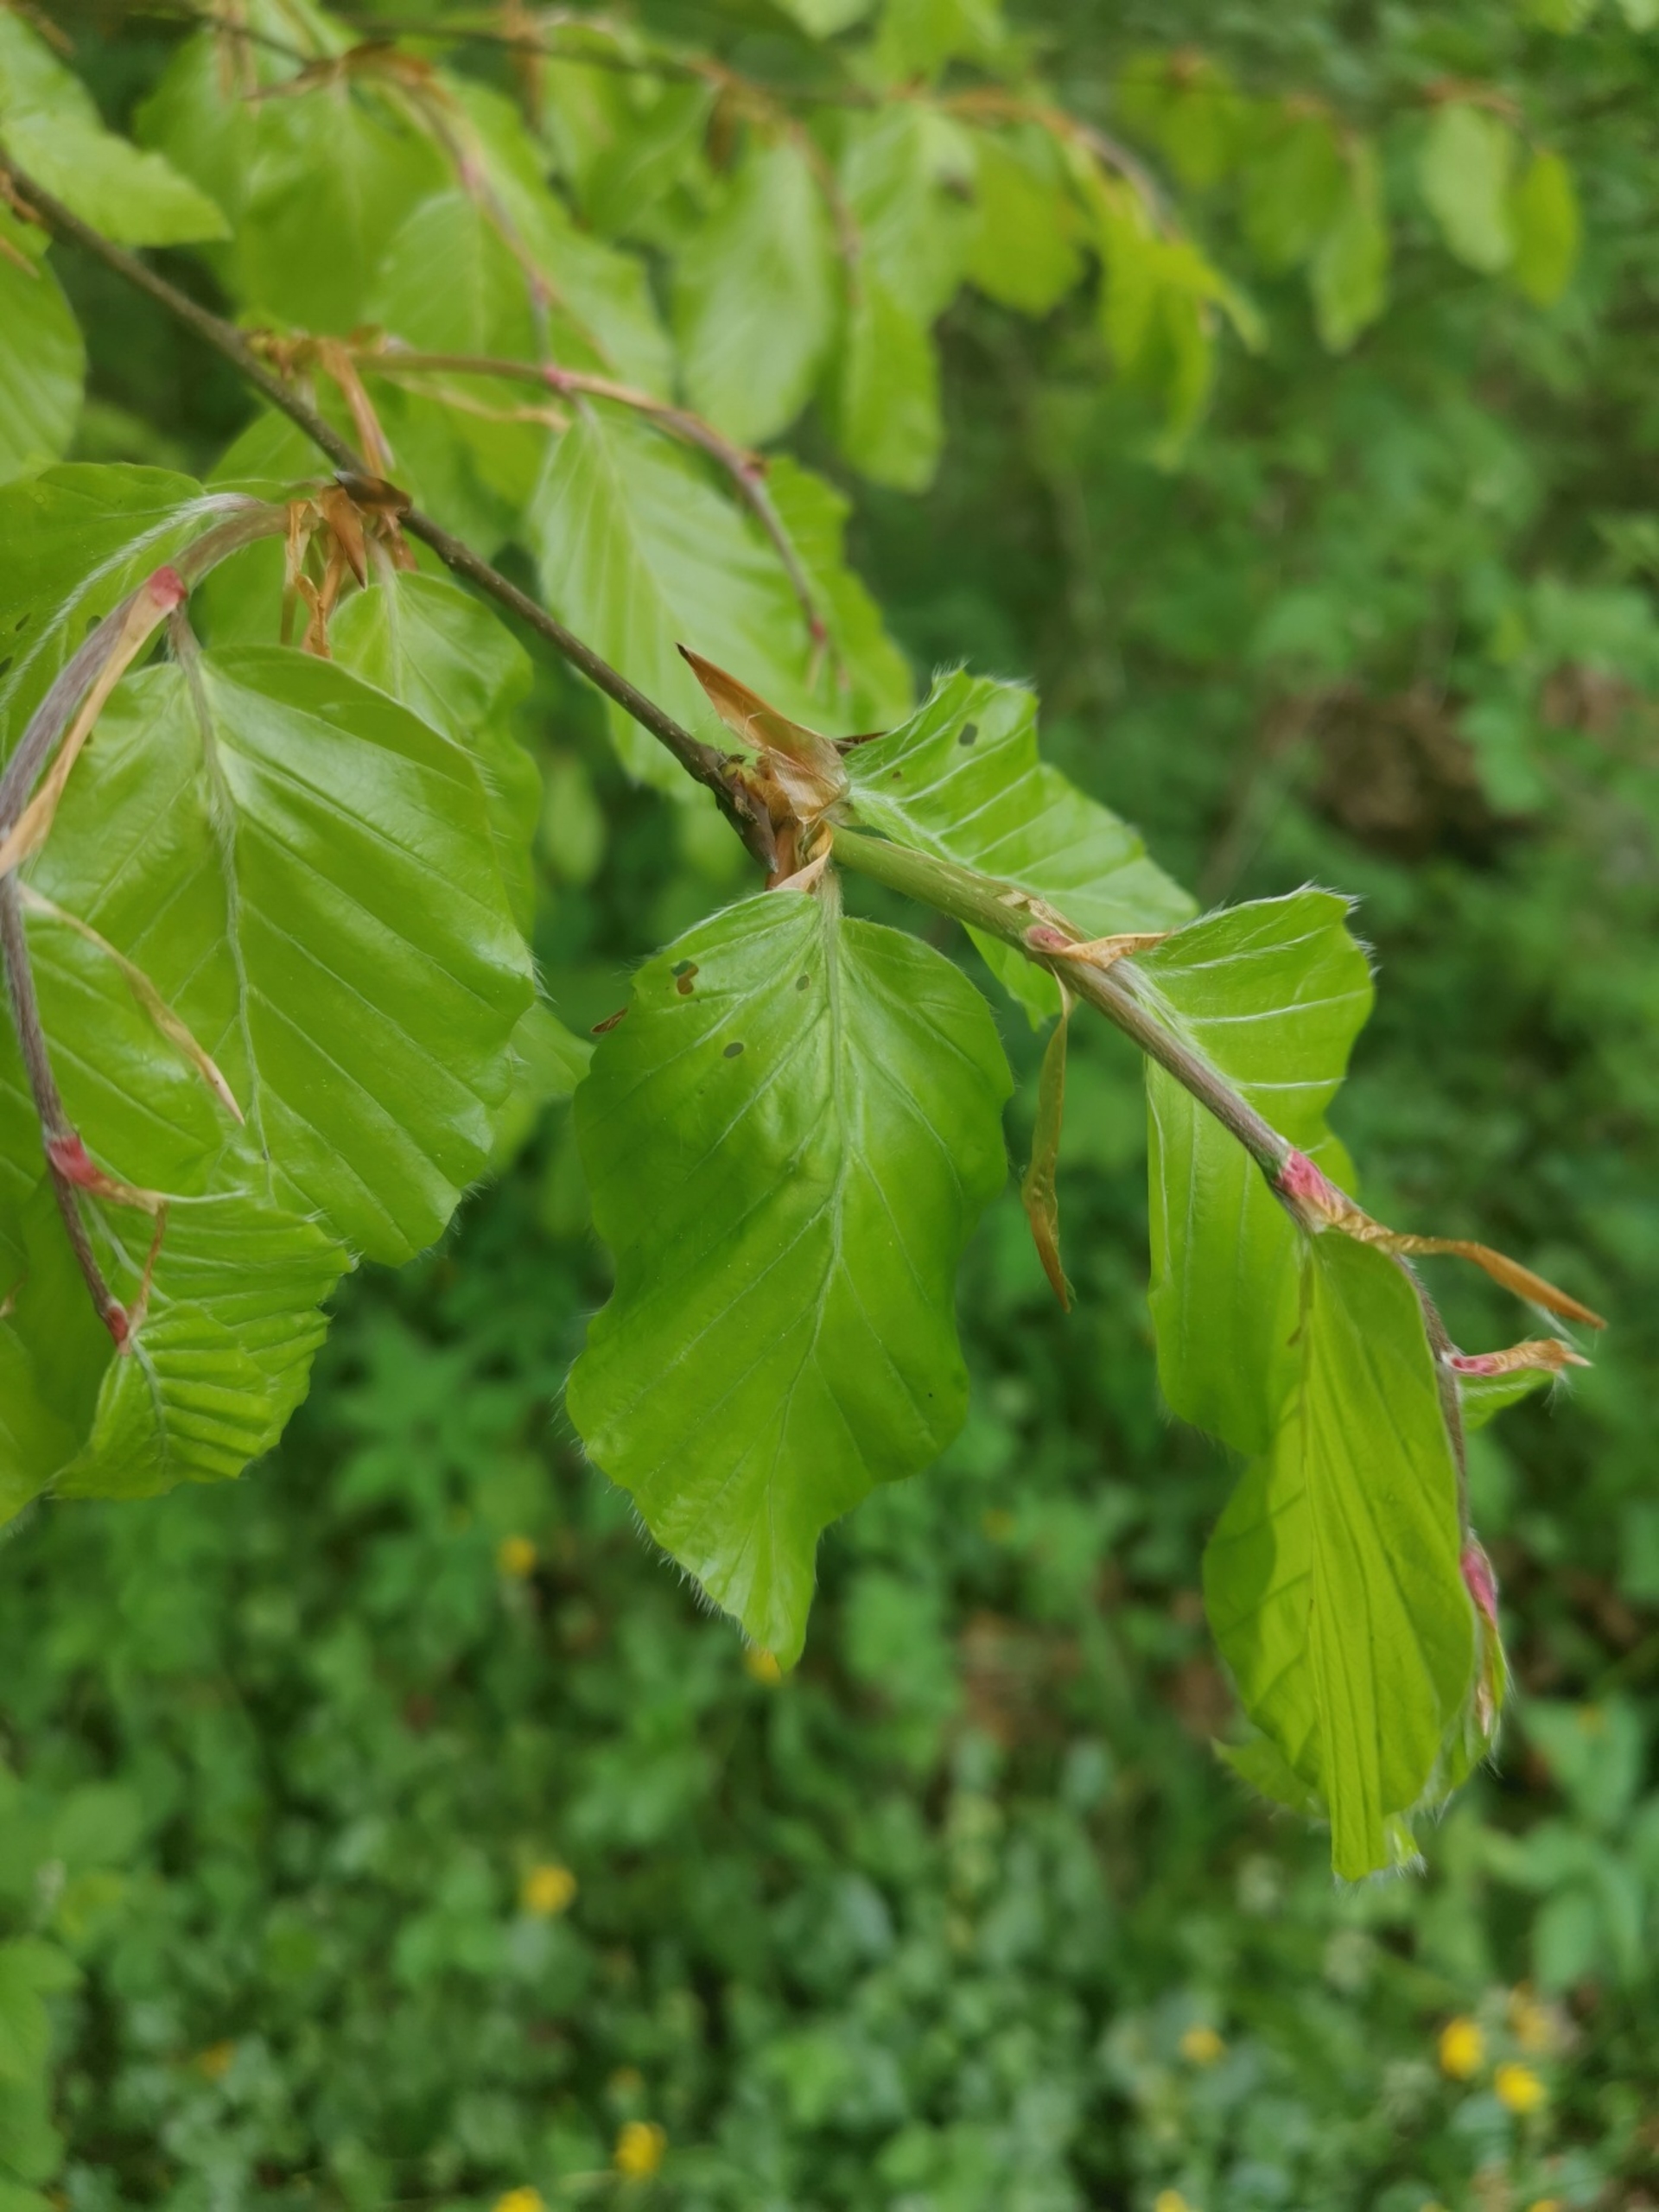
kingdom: Plantae
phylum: Tracheophyta
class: Magnoliopsida
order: Fagales
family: Fagaceae
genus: Fagus
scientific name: Fagus sylvatica
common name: Bøg
